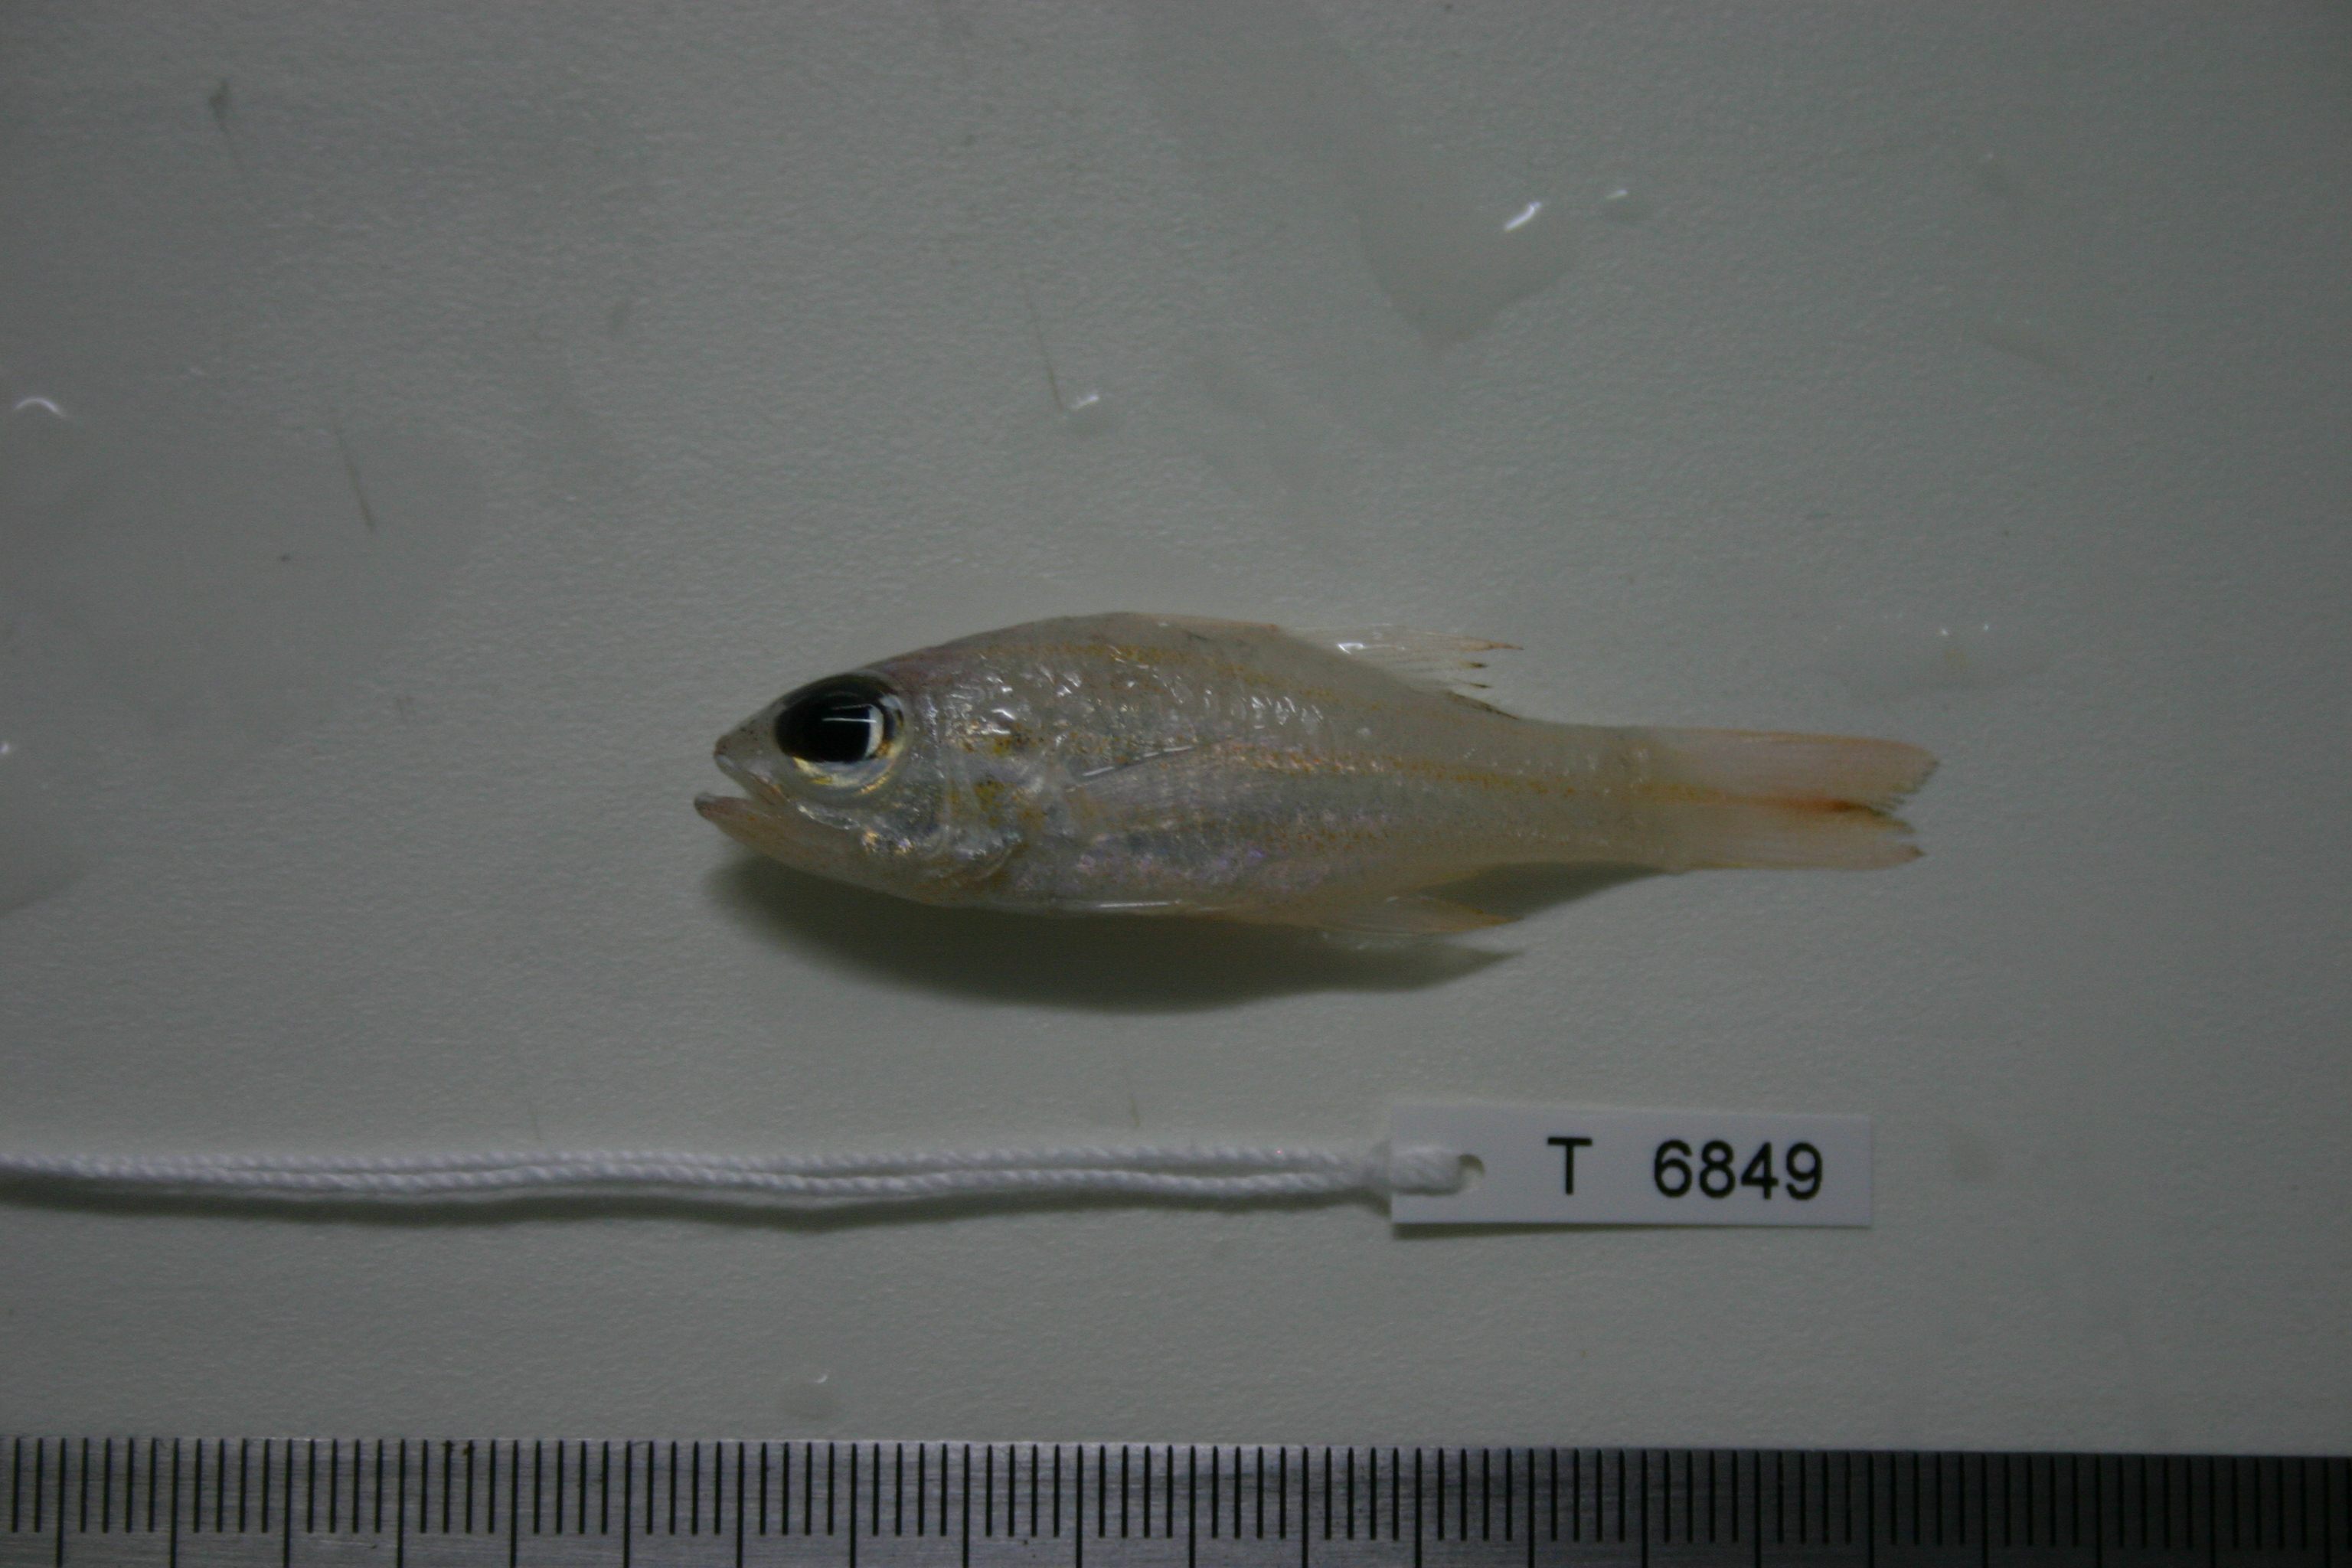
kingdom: Animalia
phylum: Chordata
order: Perciformes
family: Apogonidae
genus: Ostorhinchus
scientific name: Ostorhinchus holotaenia
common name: Copperstriped cardinalfish
